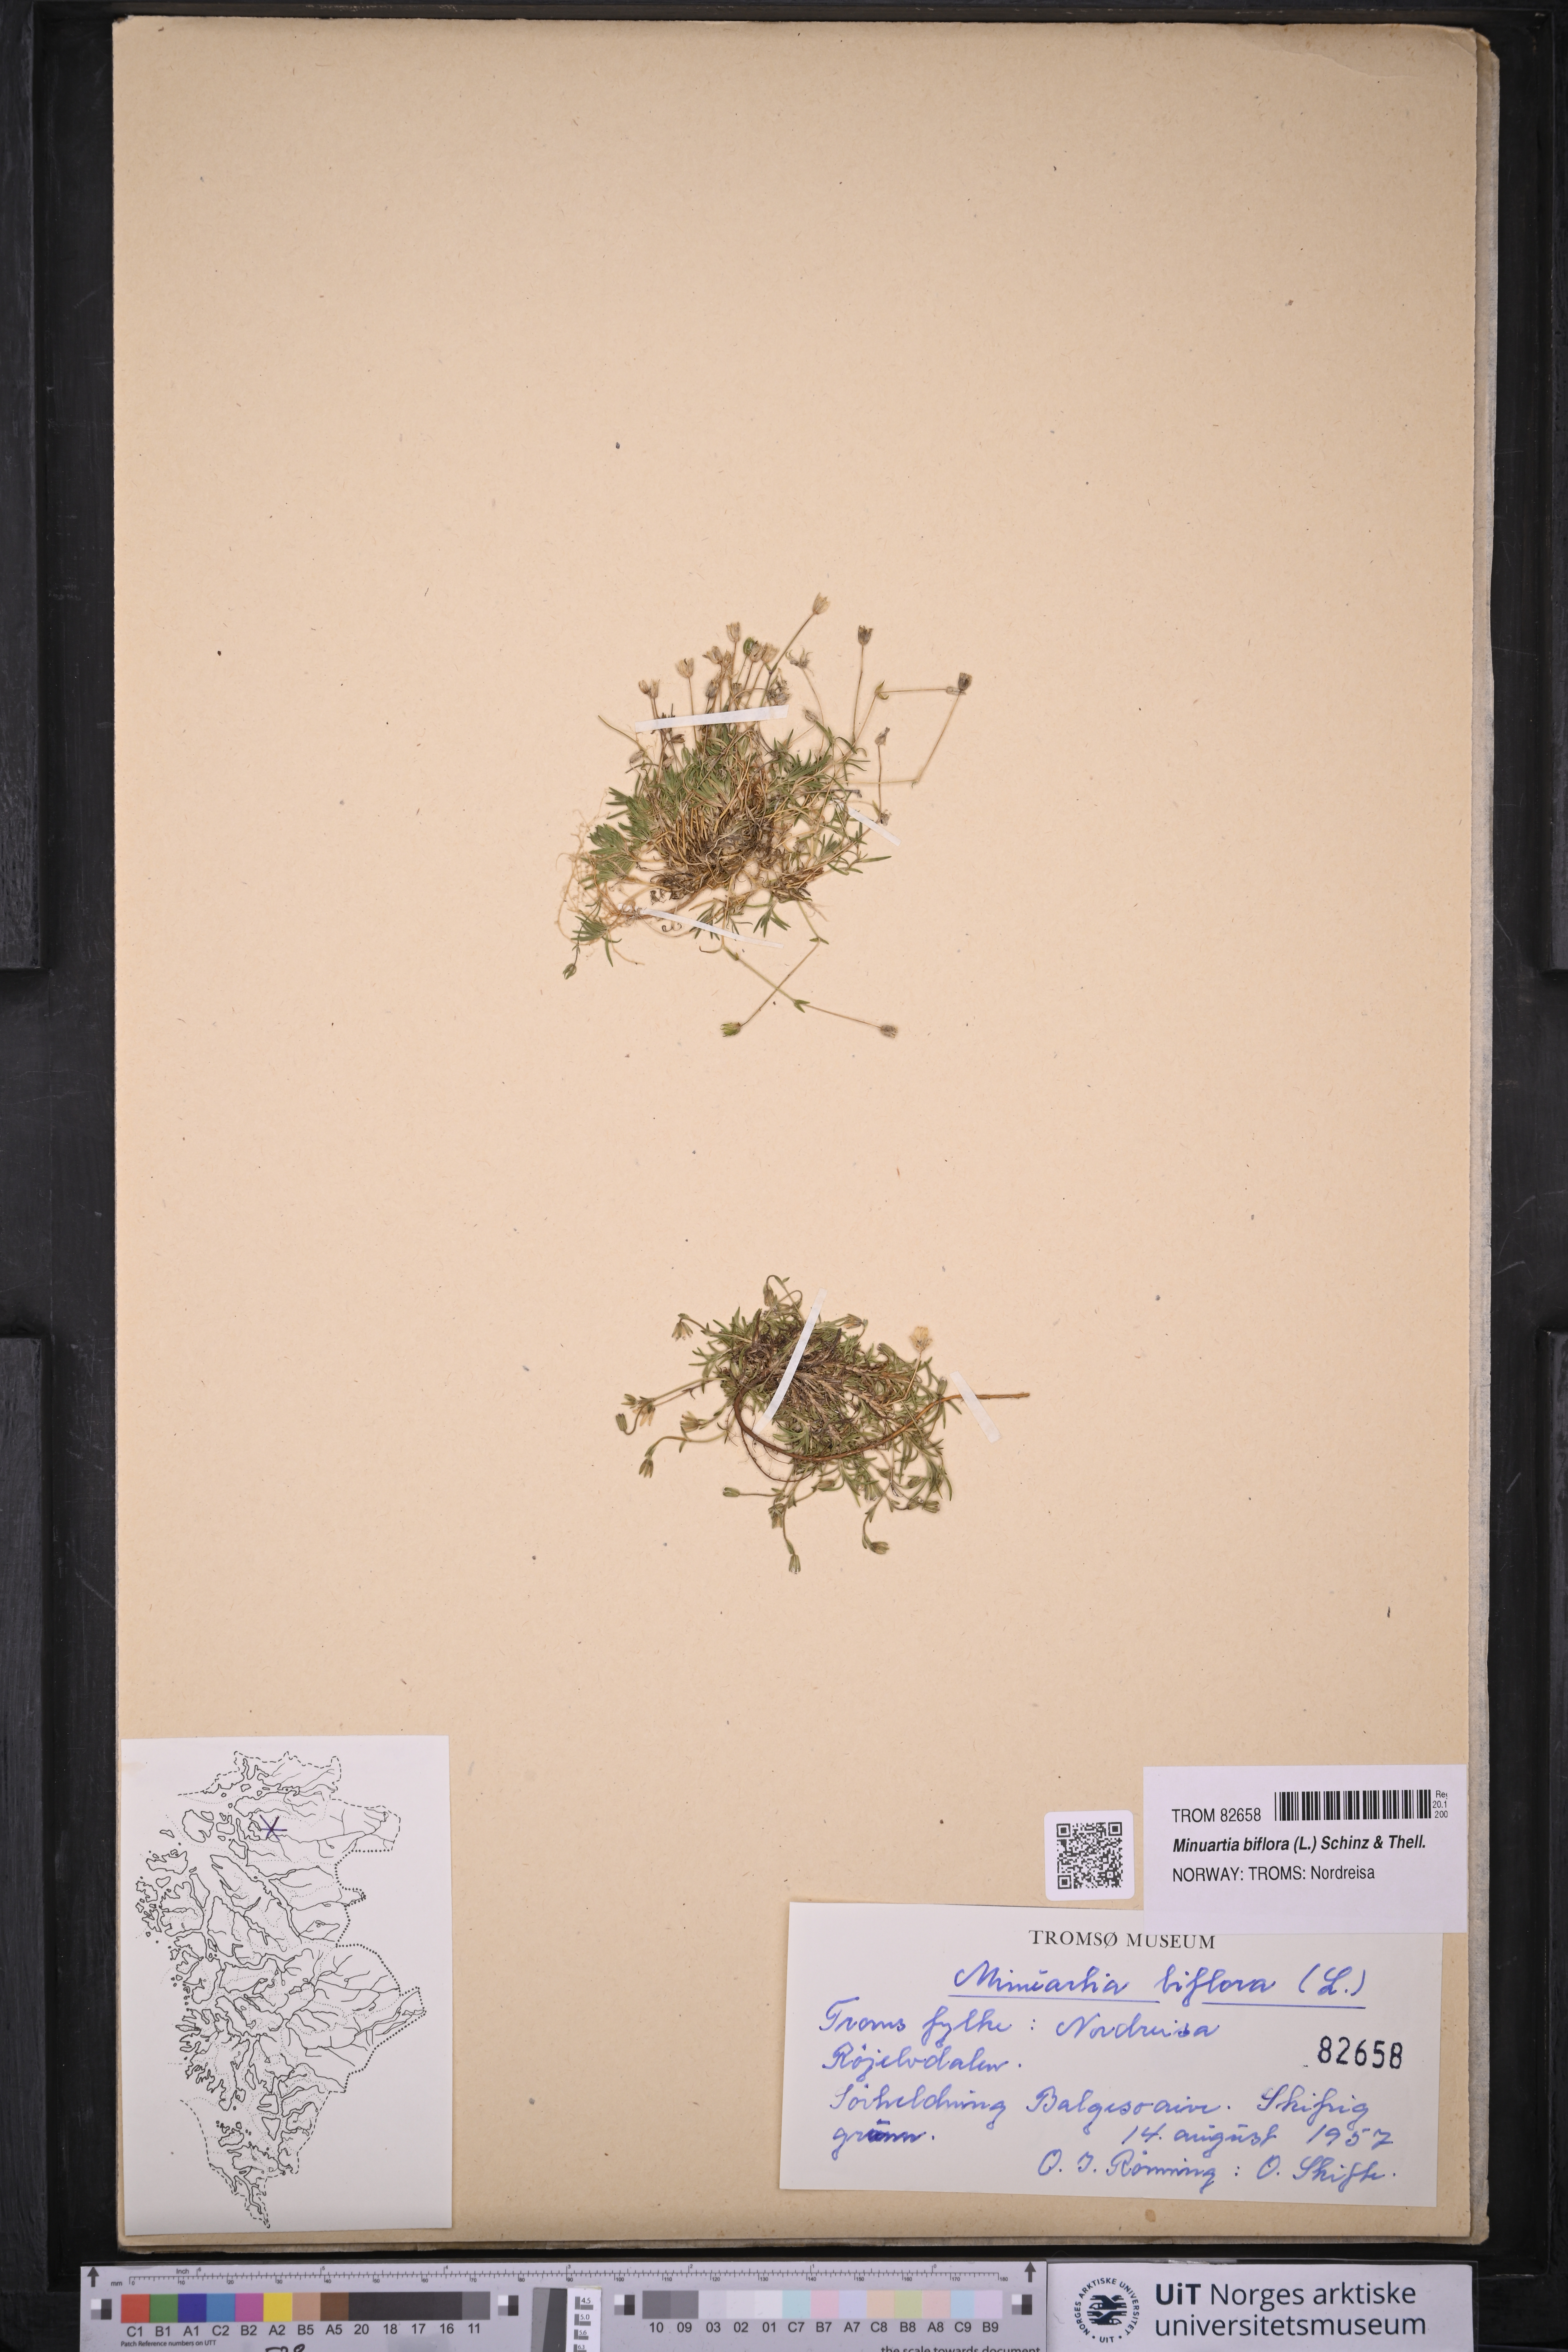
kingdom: Plantae
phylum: Tracheophyta
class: Magnoliopsida
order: Caryophyllales
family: Caryophyllaceae
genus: Cherleria
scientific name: Cherleria biflora
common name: Mountain sandwort
